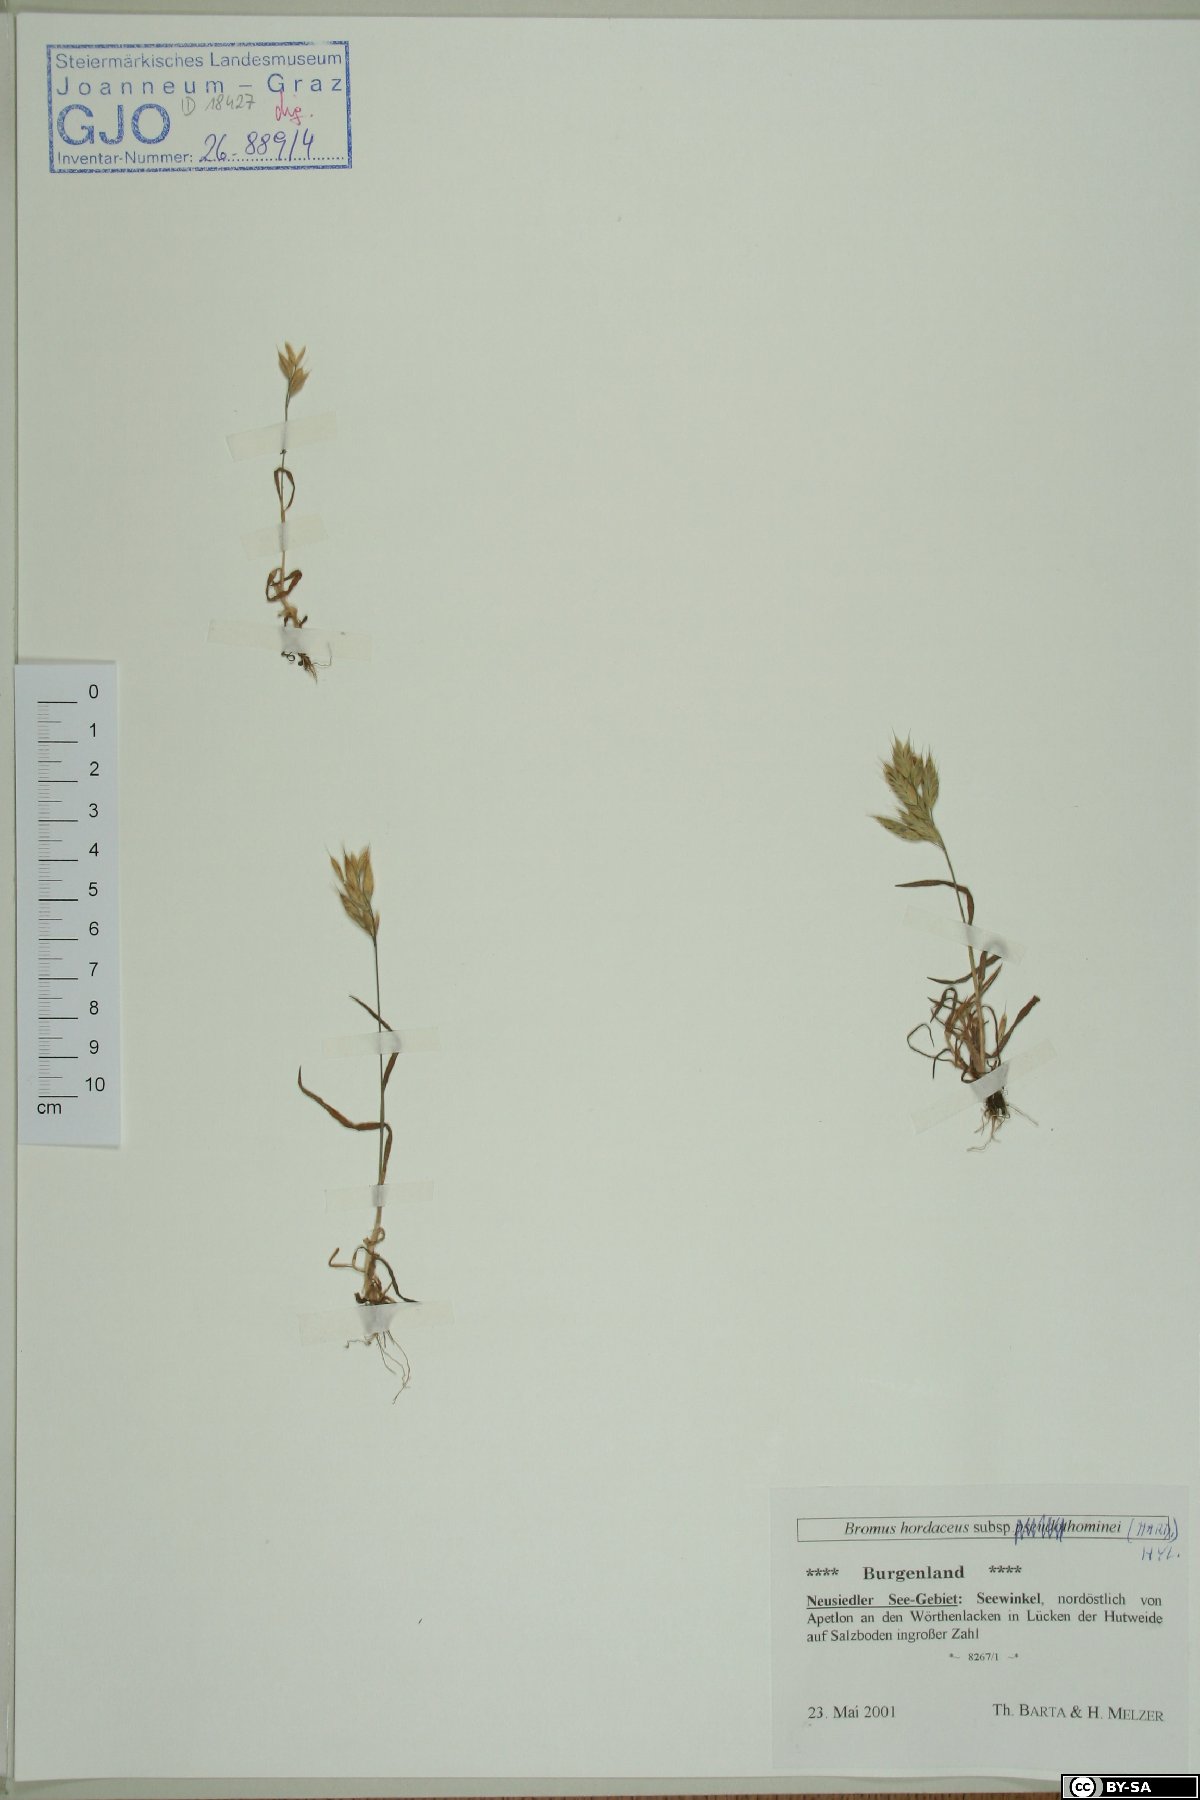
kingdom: Plantae
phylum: Tracheophyta
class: Liliopsida
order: Poales
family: Poaceae
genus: Bromus
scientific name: Bromus hordeaceus
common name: Soft brome
